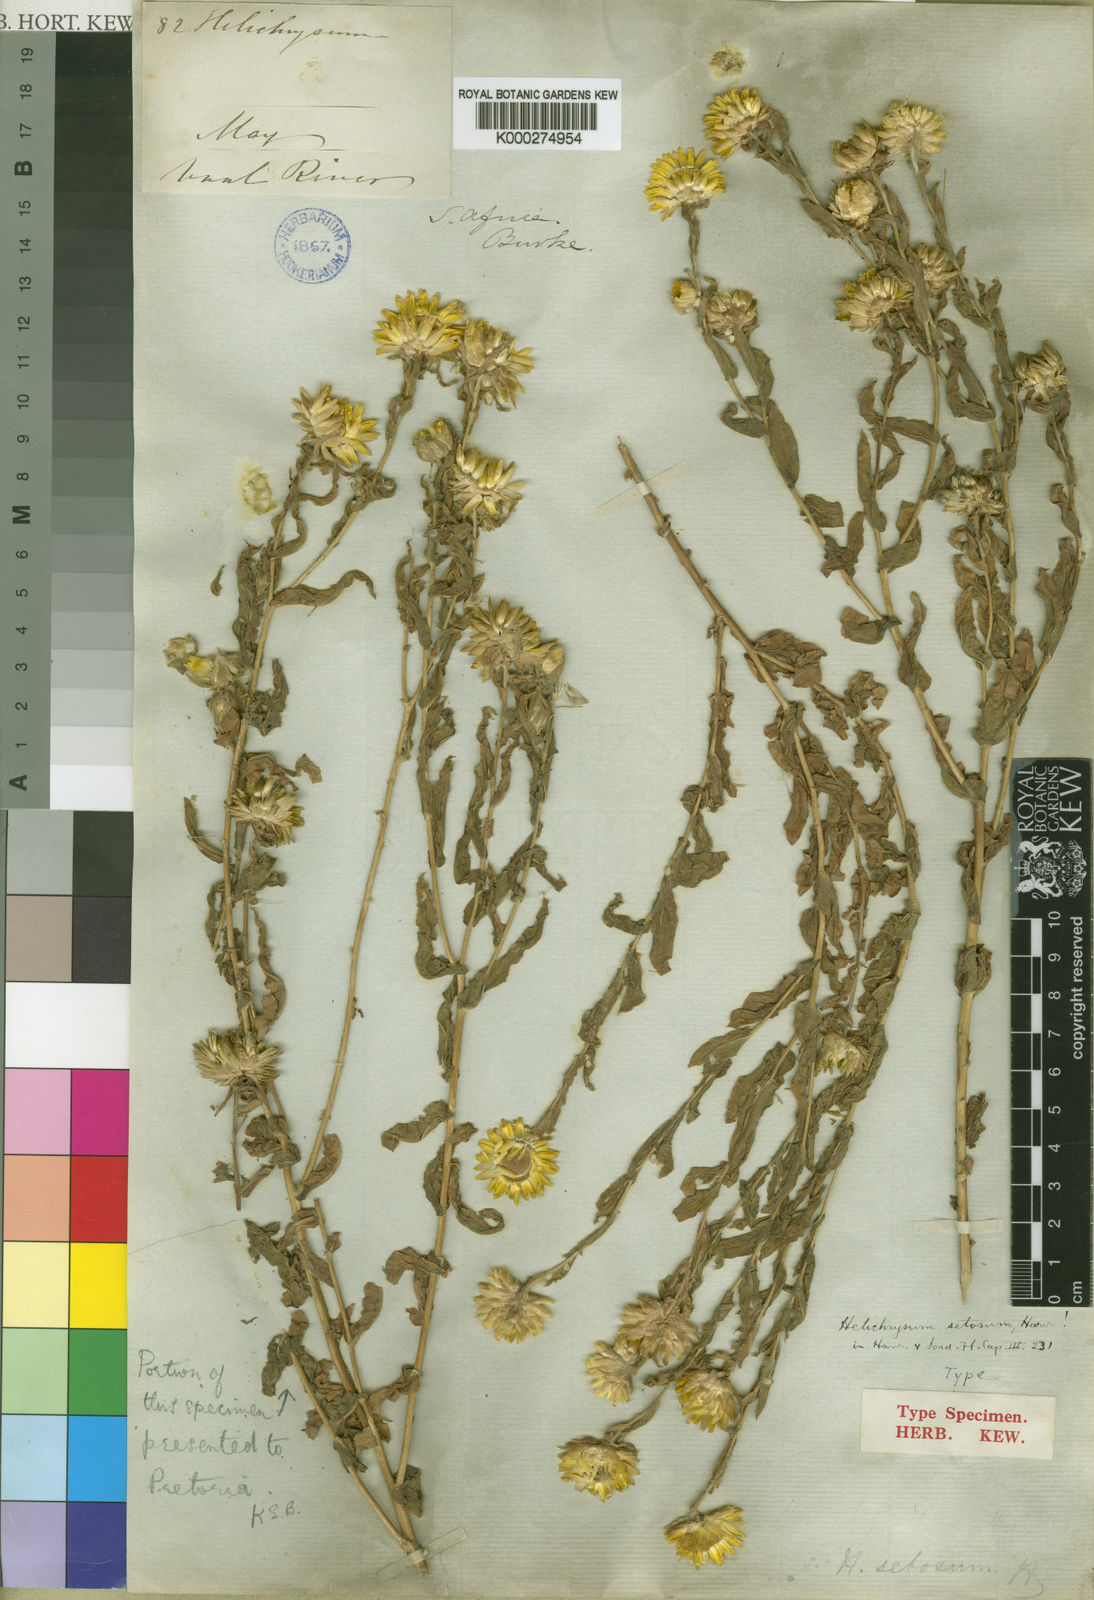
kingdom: Plantae
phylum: Tracheophyta
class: Magnoliopsida
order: Asterales
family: Asteraceae
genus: Helichrysum
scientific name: Helichrysum setosum
